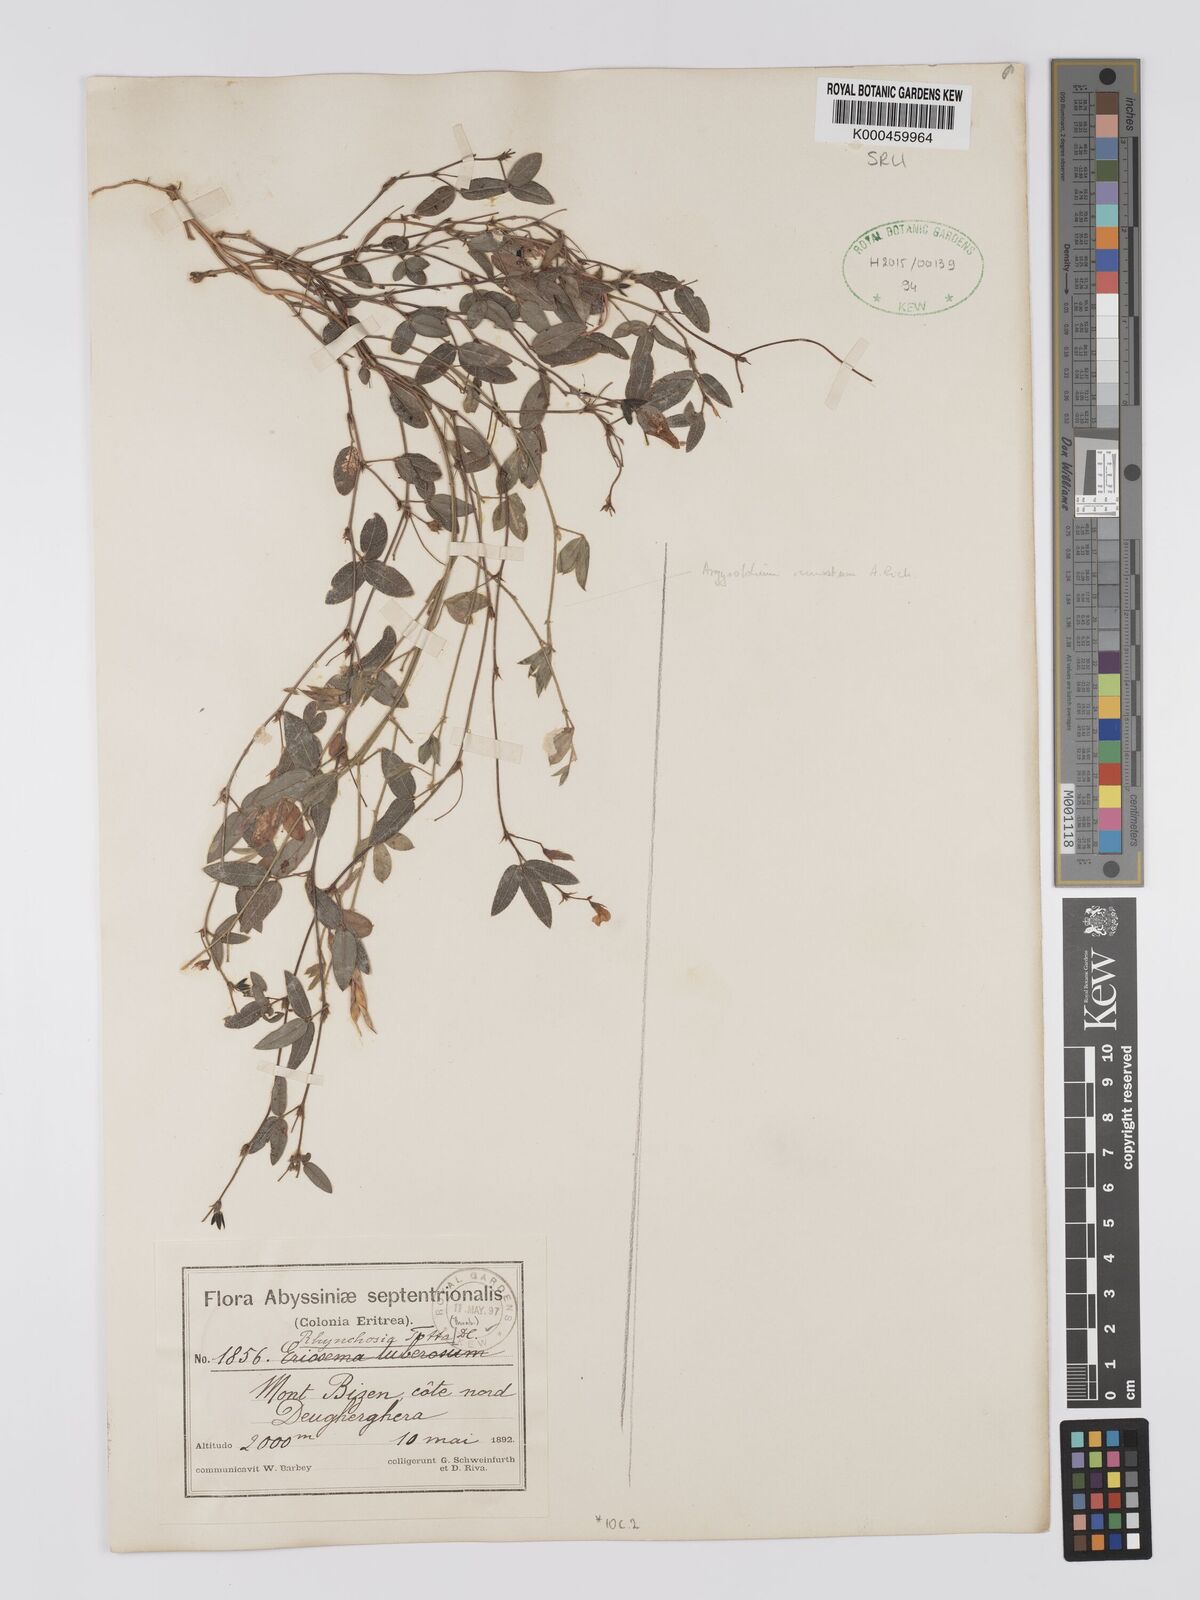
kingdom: Plantae
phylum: Tracheophyta
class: Magnoliopsida
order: Fabales
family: Fabaceae
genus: Rhynchosia
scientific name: Rhynchosia totta
